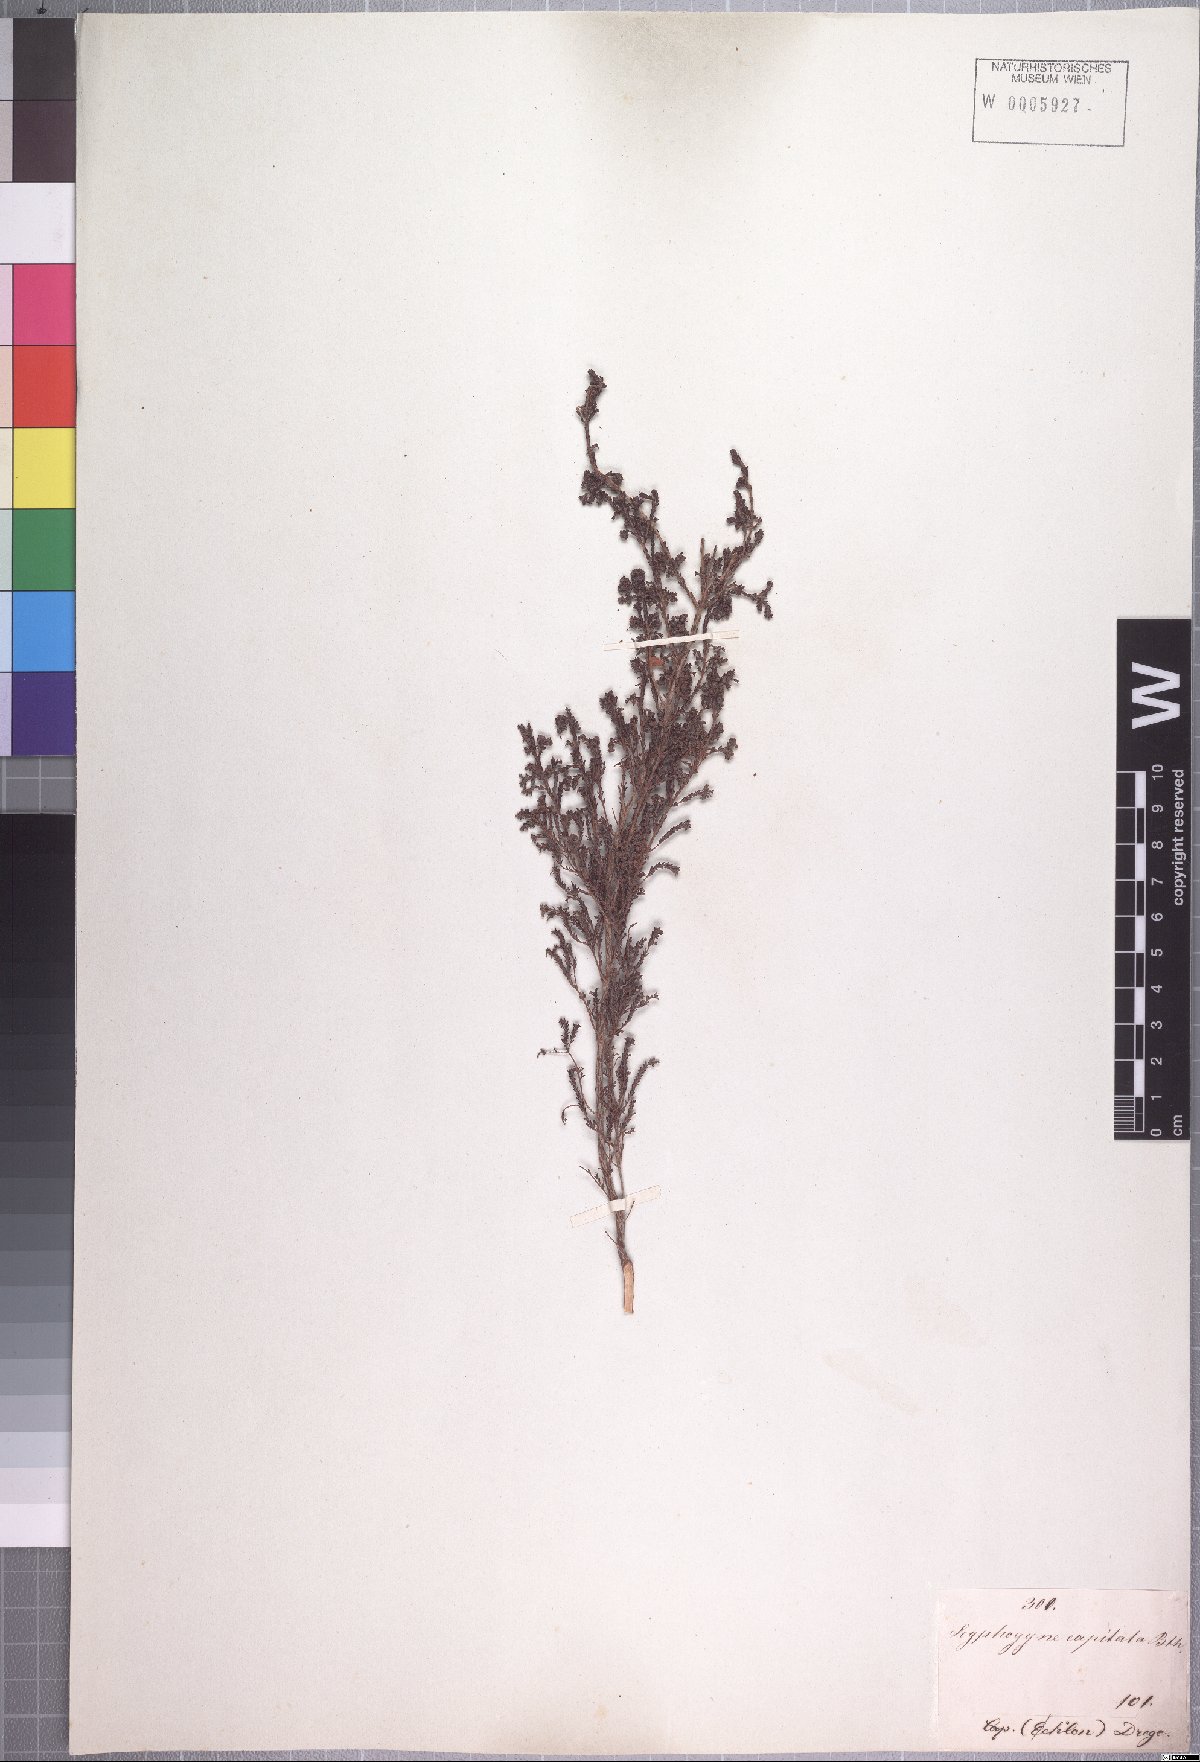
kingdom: Plantae
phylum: Tracheophyta
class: Magnoliopsida
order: Ericales
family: Ericaceae
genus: Erica
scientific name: Erica phacelanthera
